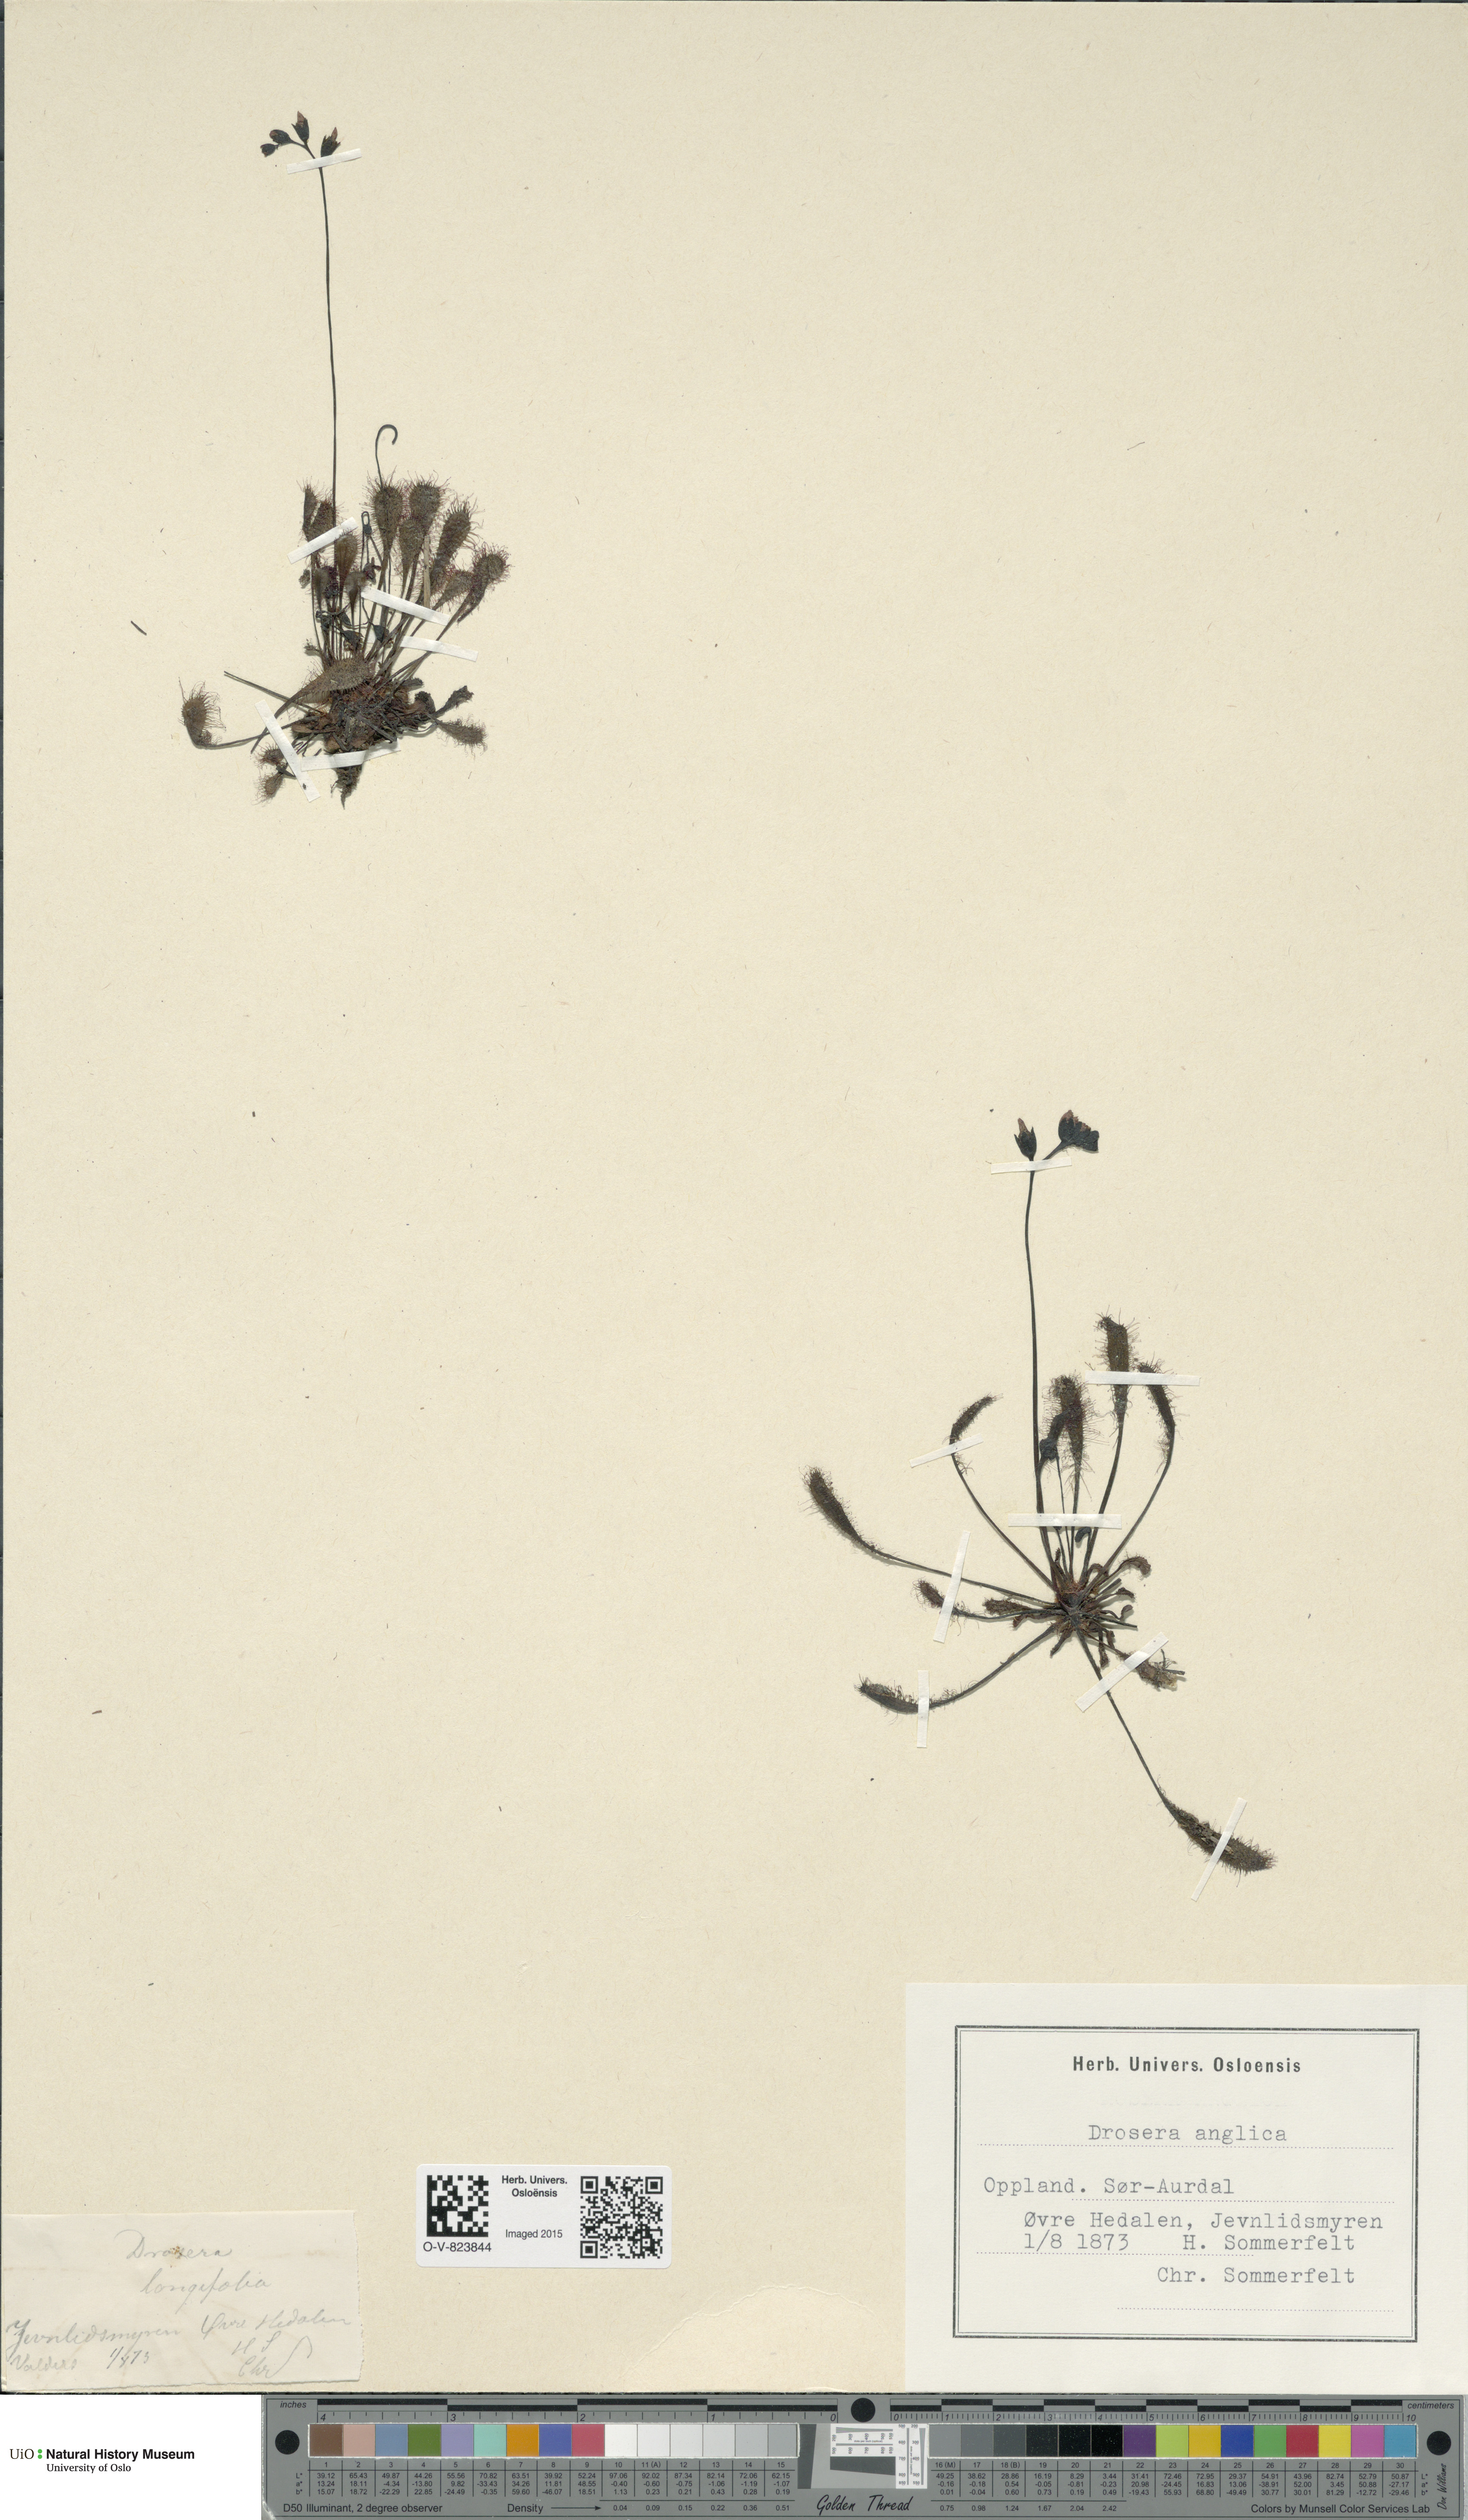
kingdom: Plantae
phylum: Tracheophyta
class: Magnoliopsida
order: Caryophyllales
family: Droseraceae
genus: Drosera
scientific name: Drosera anglica
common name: Great sundew
